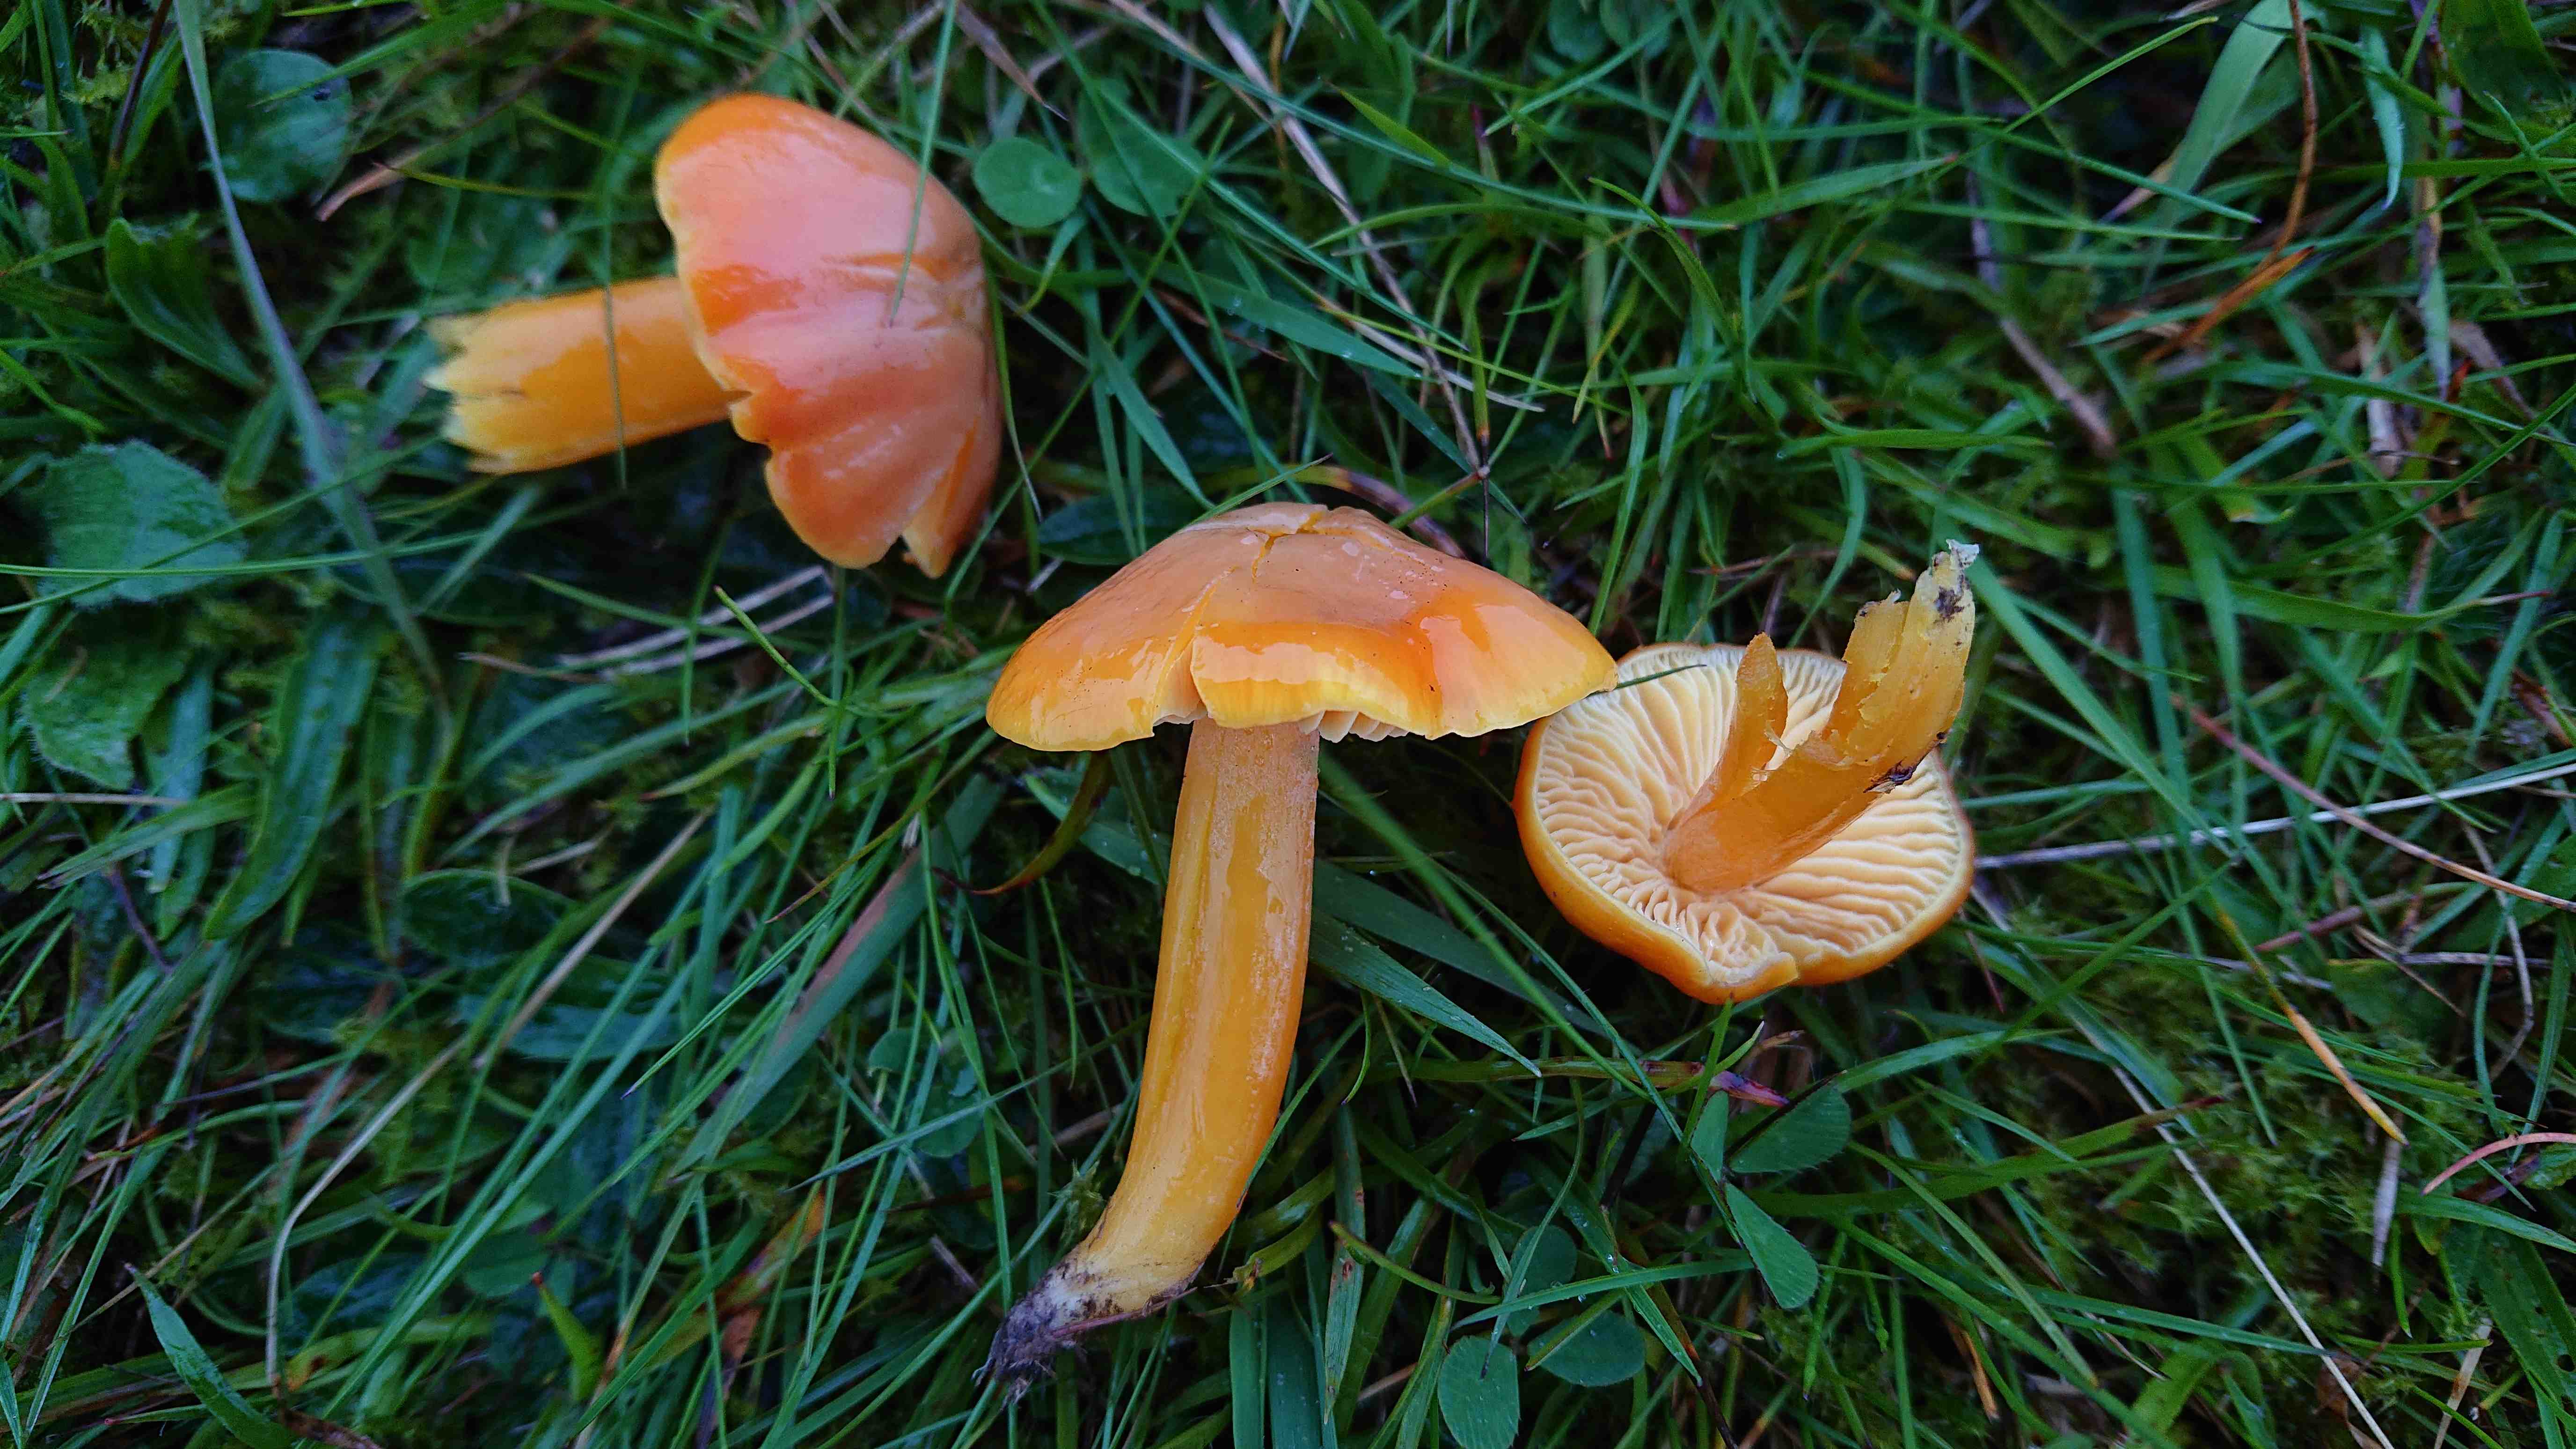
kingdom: Fungi
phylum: Basidiomycota
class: Agaricomycetes
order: Agaricales
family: Hygrophoraceae
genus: Hygrocybe
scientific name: Hygrocybe reidii
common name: honning-vokshat
